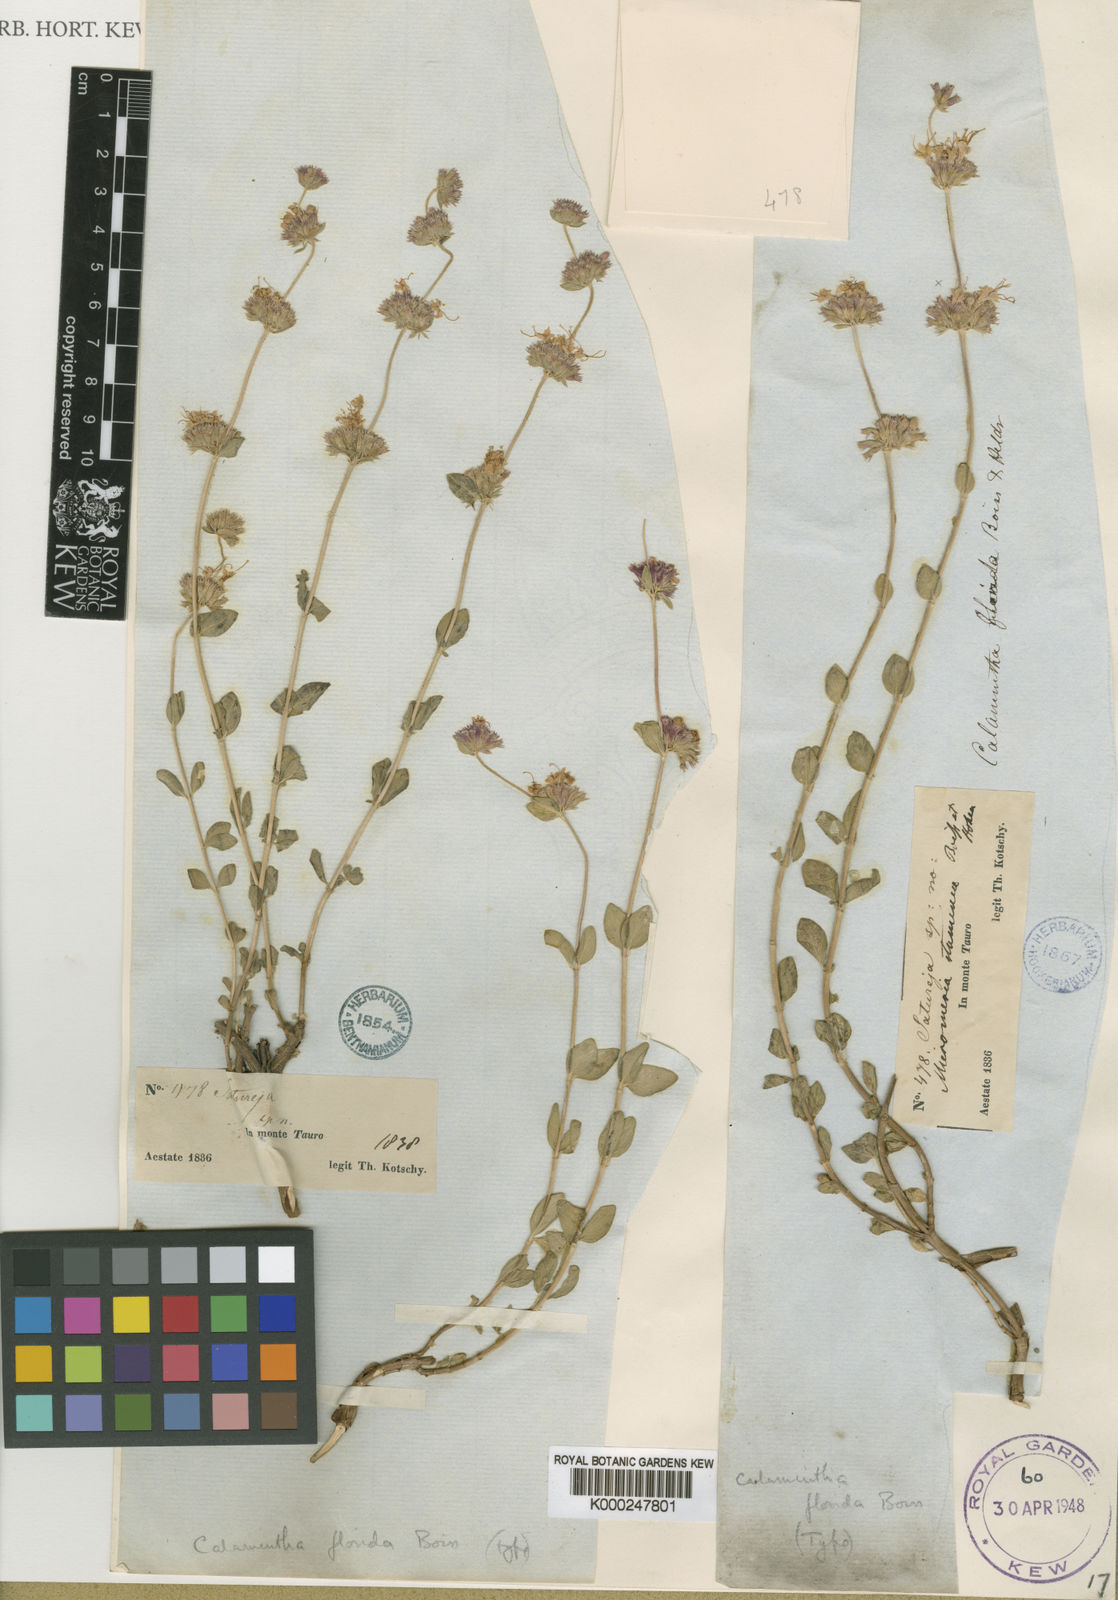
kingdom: Plantae
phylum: Tracheophyta
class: Magnoliopsida
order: Lamiales
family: Lamiaceae
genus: Cyclotrichium
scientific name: Cyclotrichium origanifolium
